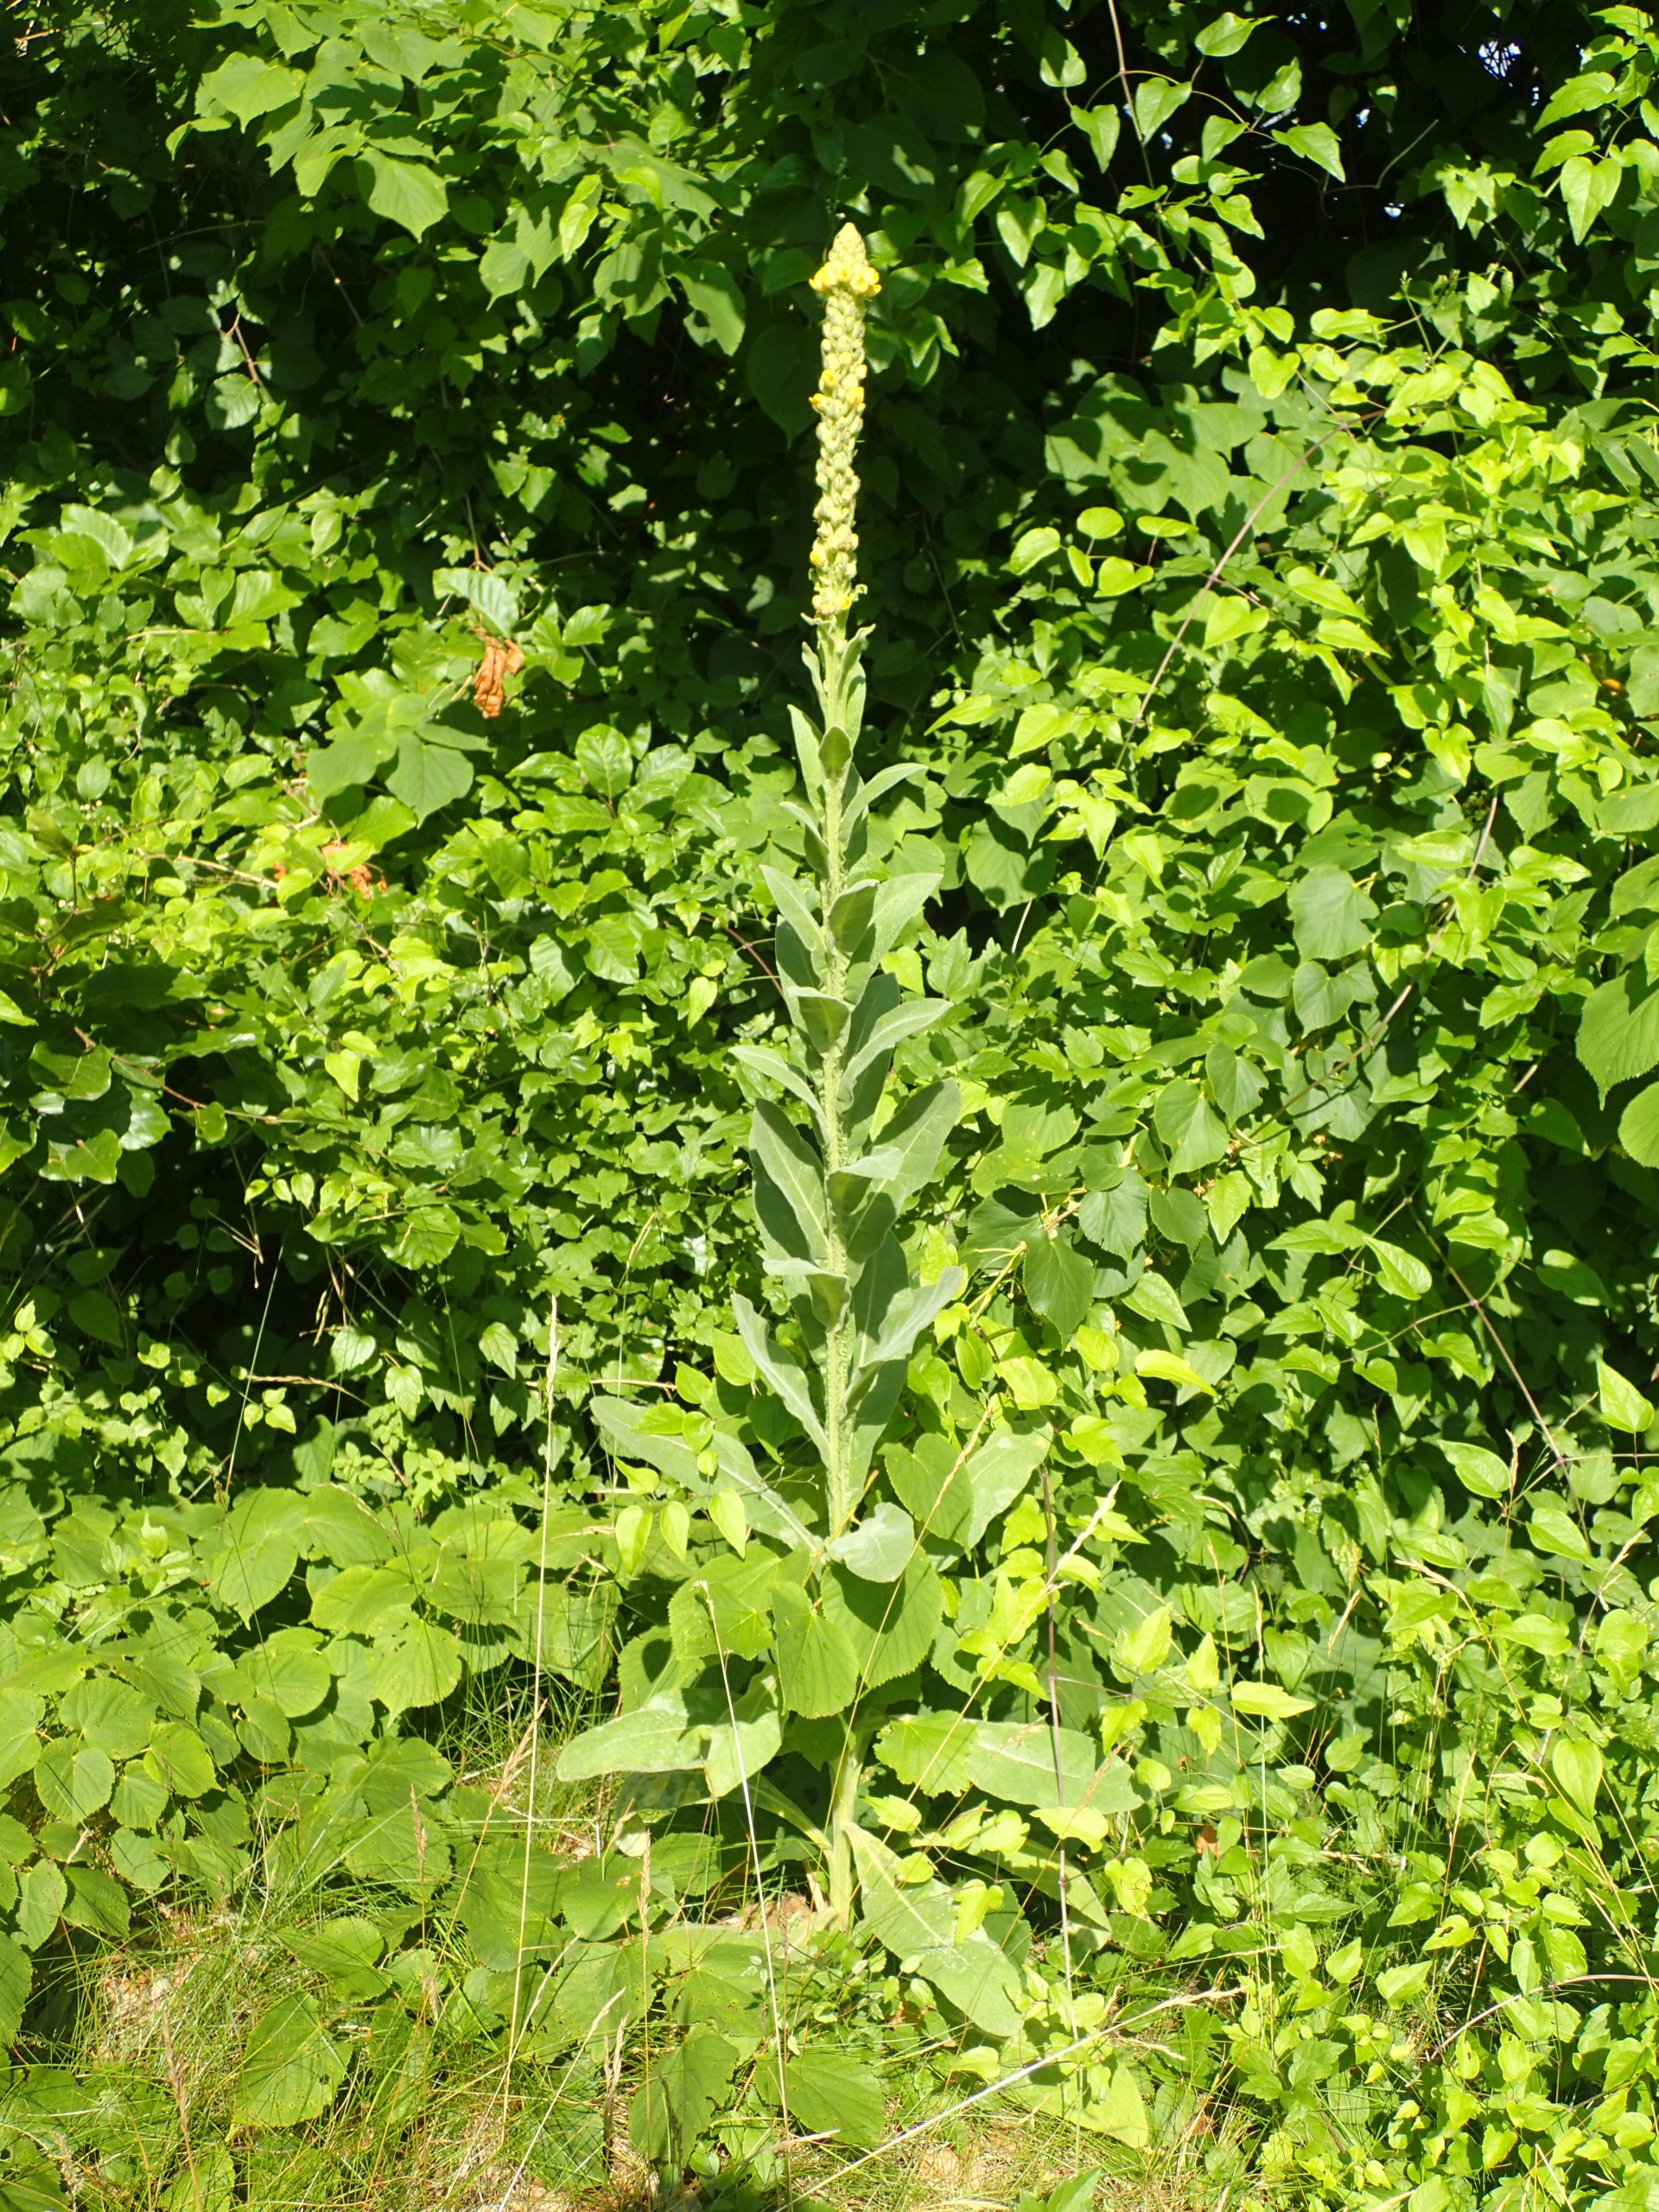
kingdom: Plantae
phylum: Tracheophyta
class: Magnoliopsida
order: Lamiales
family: Scrophulariaceae
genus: Verbascum
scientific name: Verbascum thapsus
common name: Filtbladet kongelys
